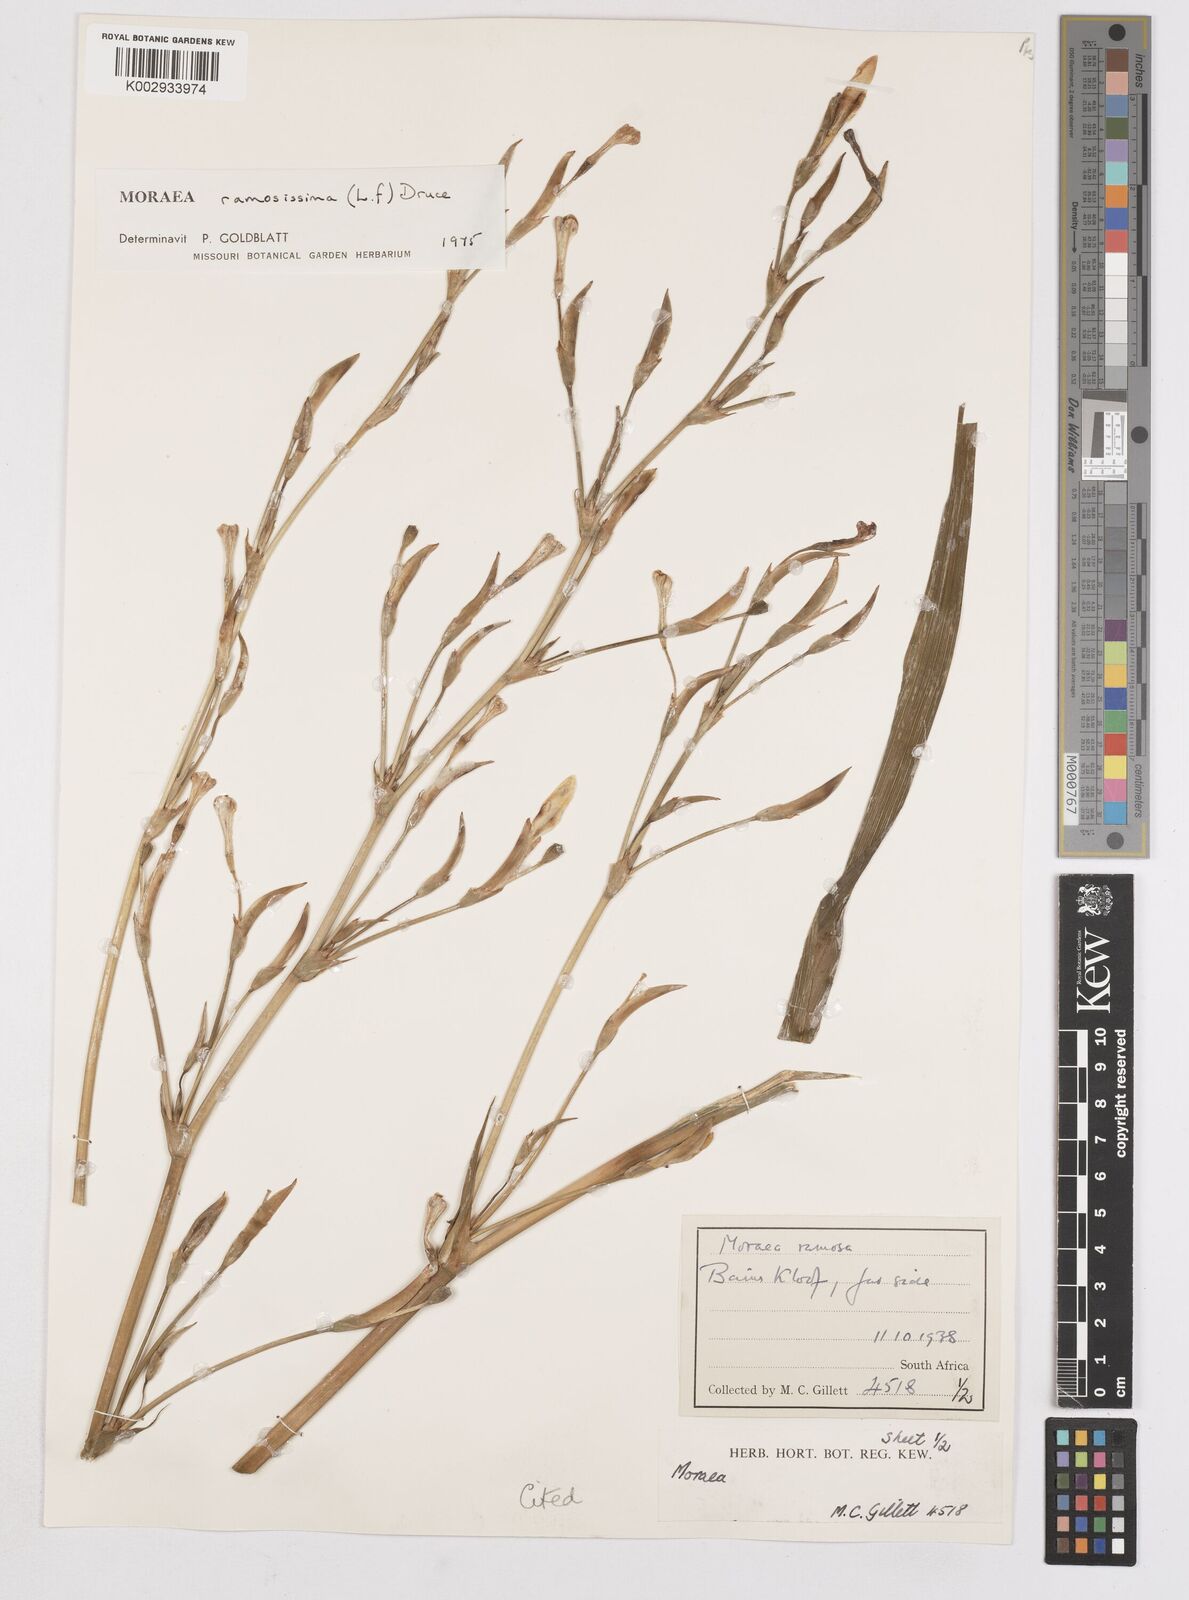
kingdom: Plantae
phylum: Tracheophyta
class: Liliopsida
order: Asparagales
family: Iridaceae
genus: Moraea
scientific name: Moraea ramosissima
